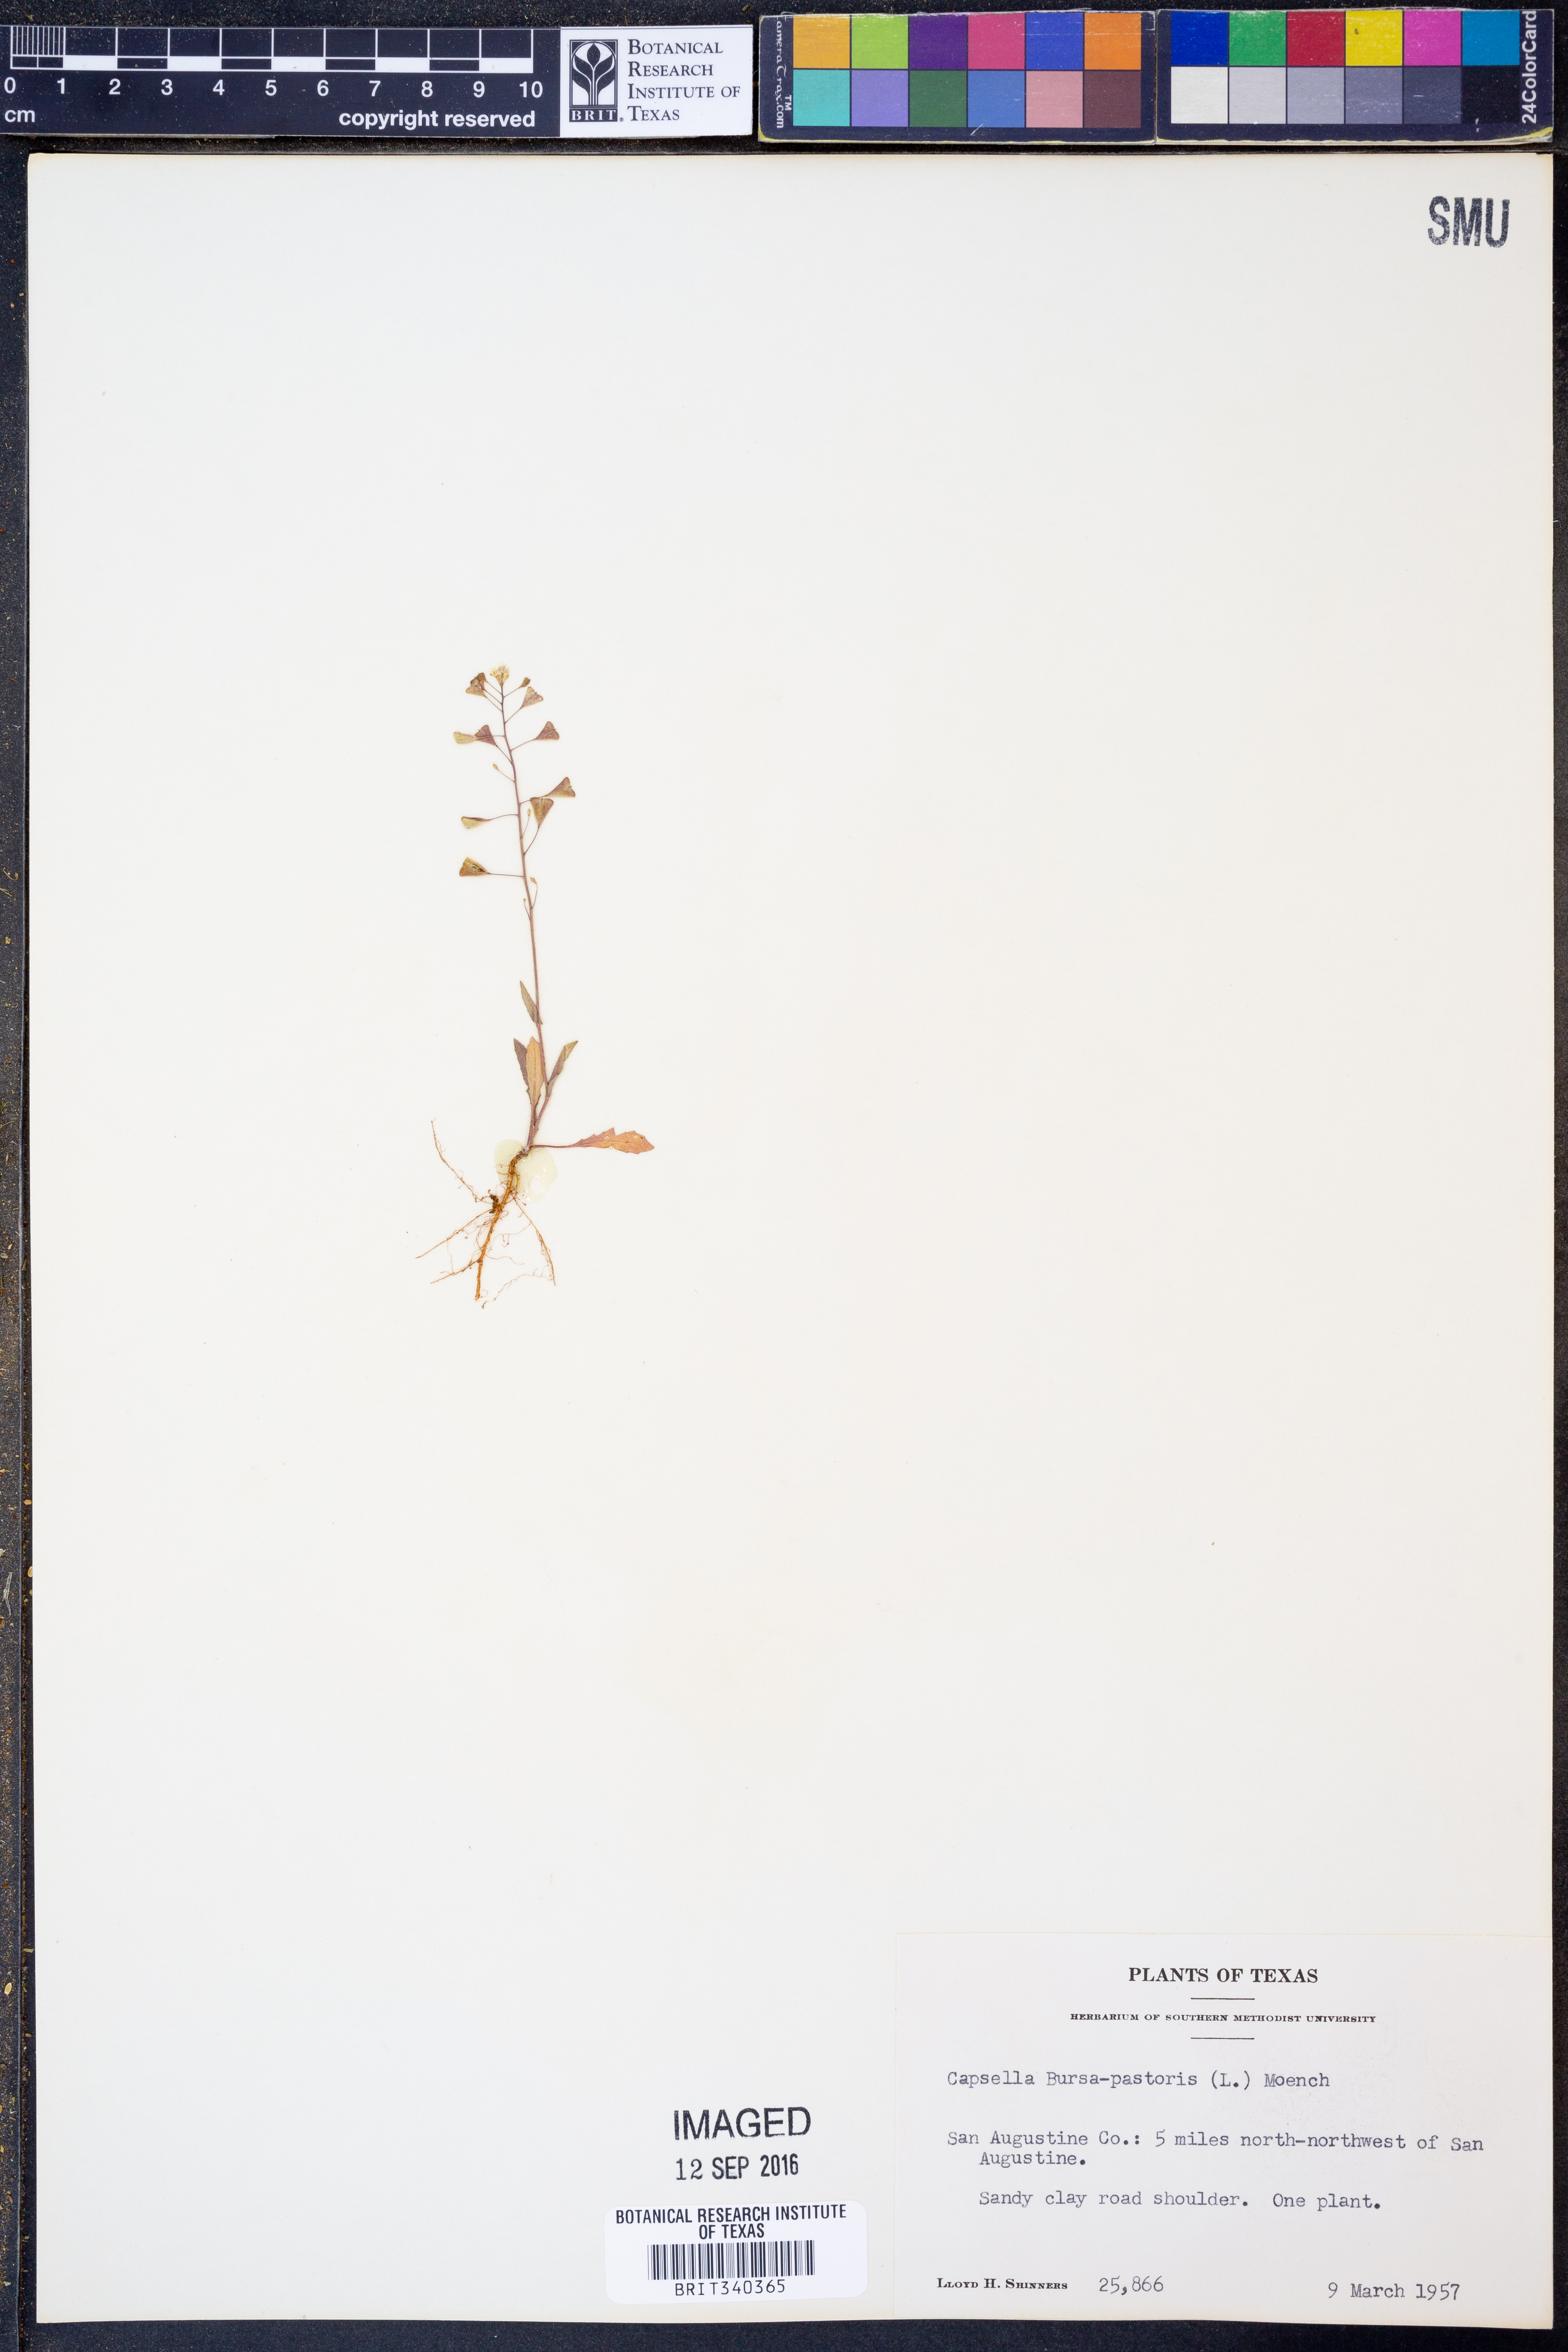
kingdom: Plantae
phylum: Tracheophyta
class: Magnoliopsida
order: Brassicales
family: Brassicaceae
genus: Capsella
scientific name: Capsella bursa-pastoris
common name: Shepherd's purse
